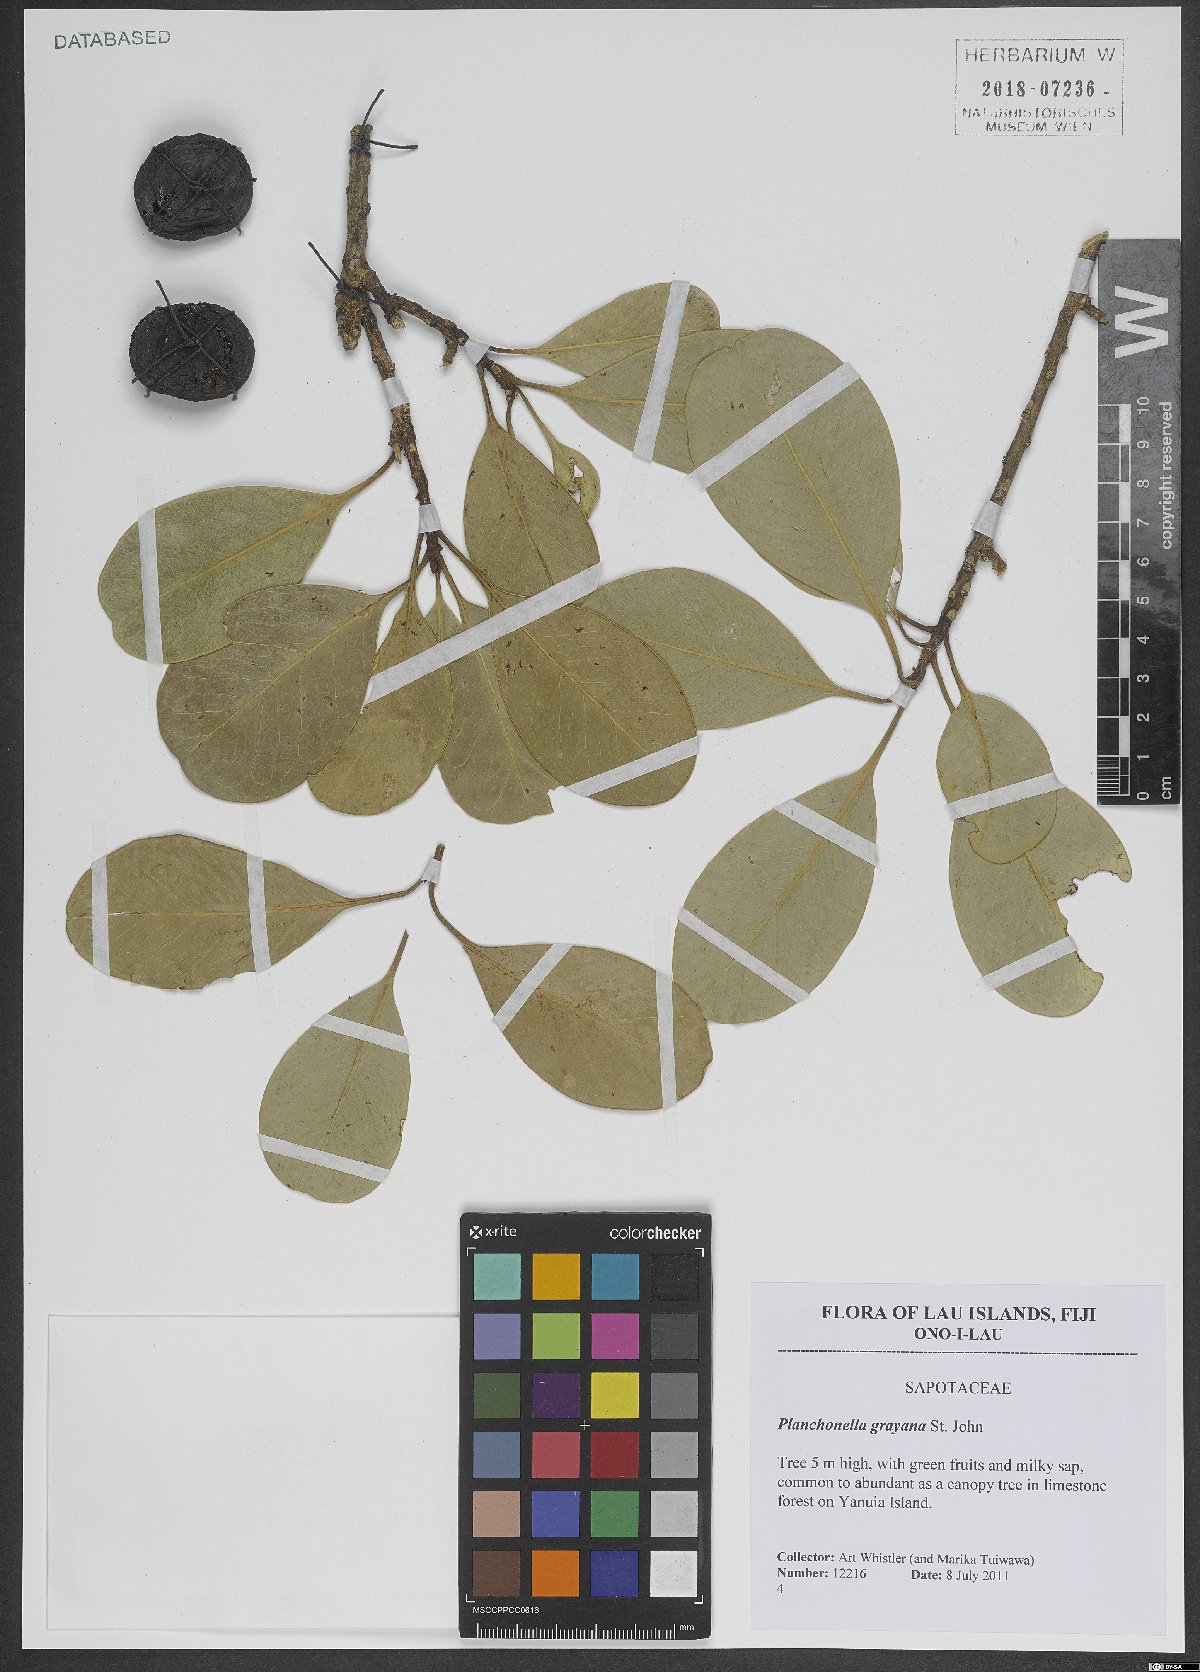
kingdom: Plantae
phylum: Tracheophyta
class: Magnoliopsida
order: Ericales
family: Sapotaceae
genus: Planchonella
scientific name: Planchonella tahitensis
